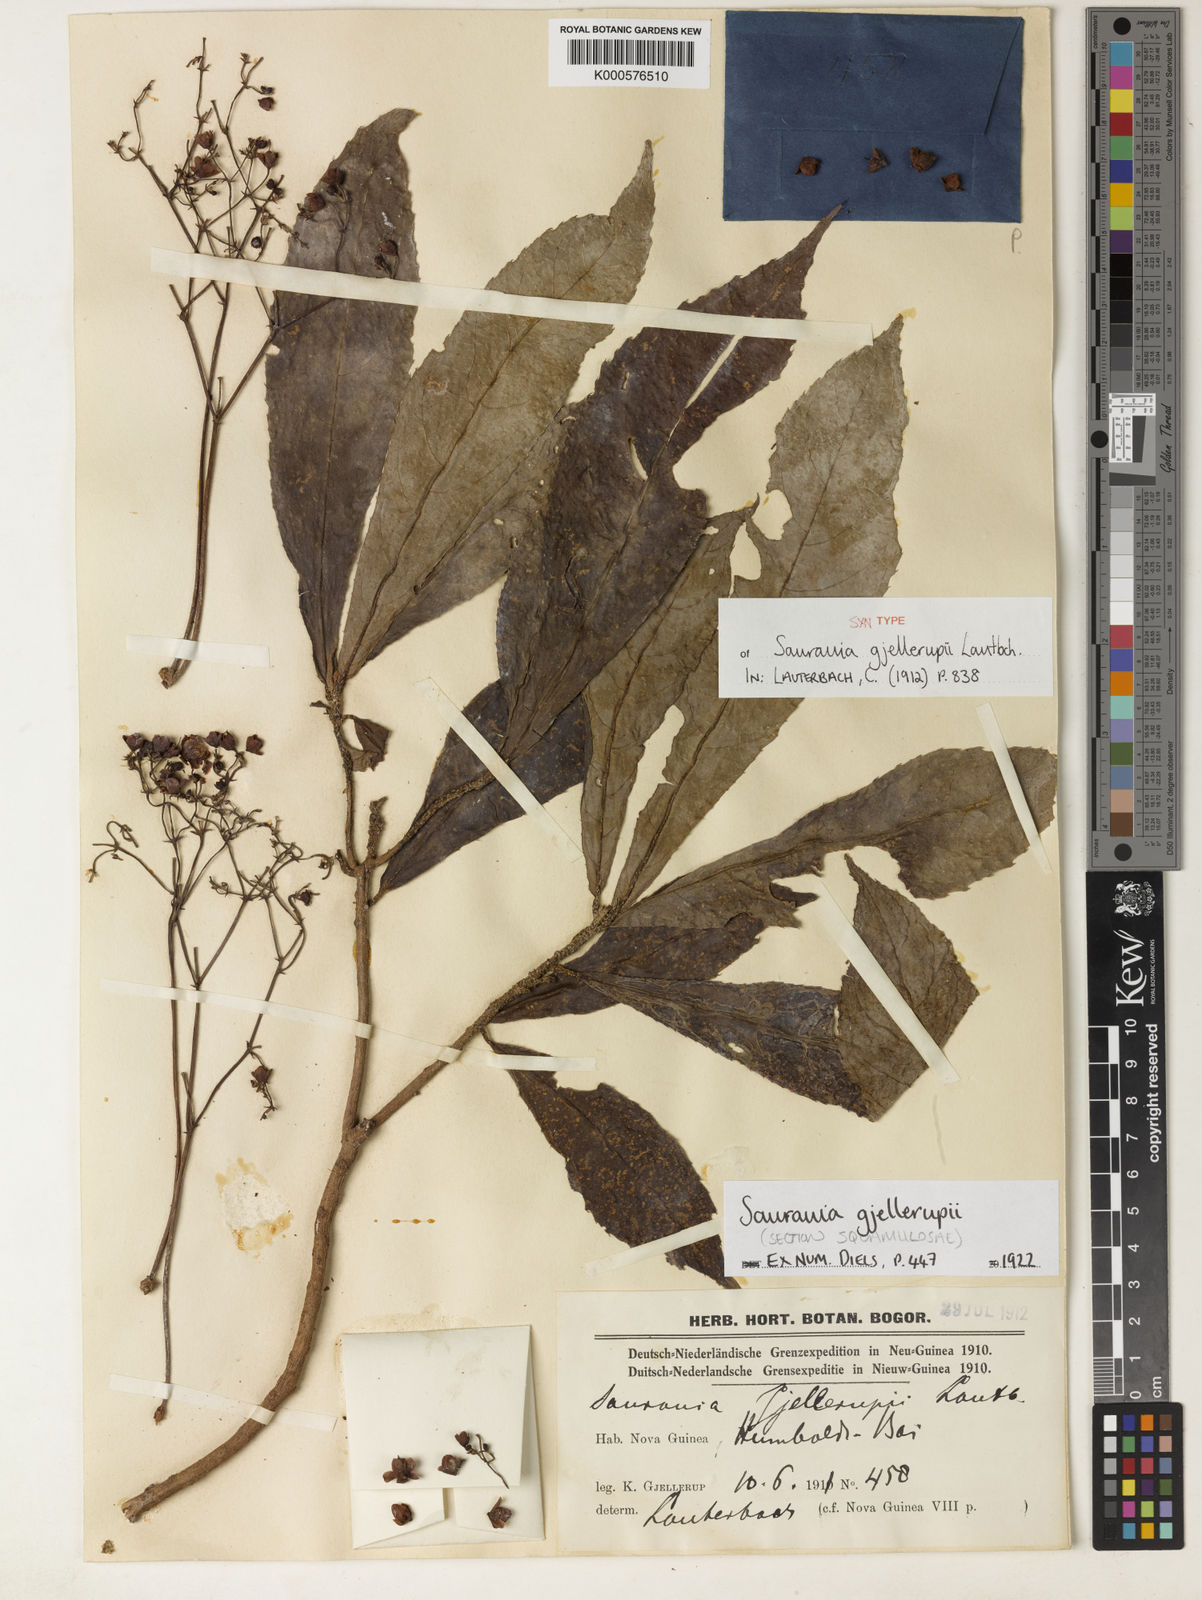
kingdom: Plantae
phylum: Tracheophyta
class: Magnoliopsida
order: Ericales
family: Actinidiaceae
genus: Saurauia
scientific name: Saurauia gjellerupii
